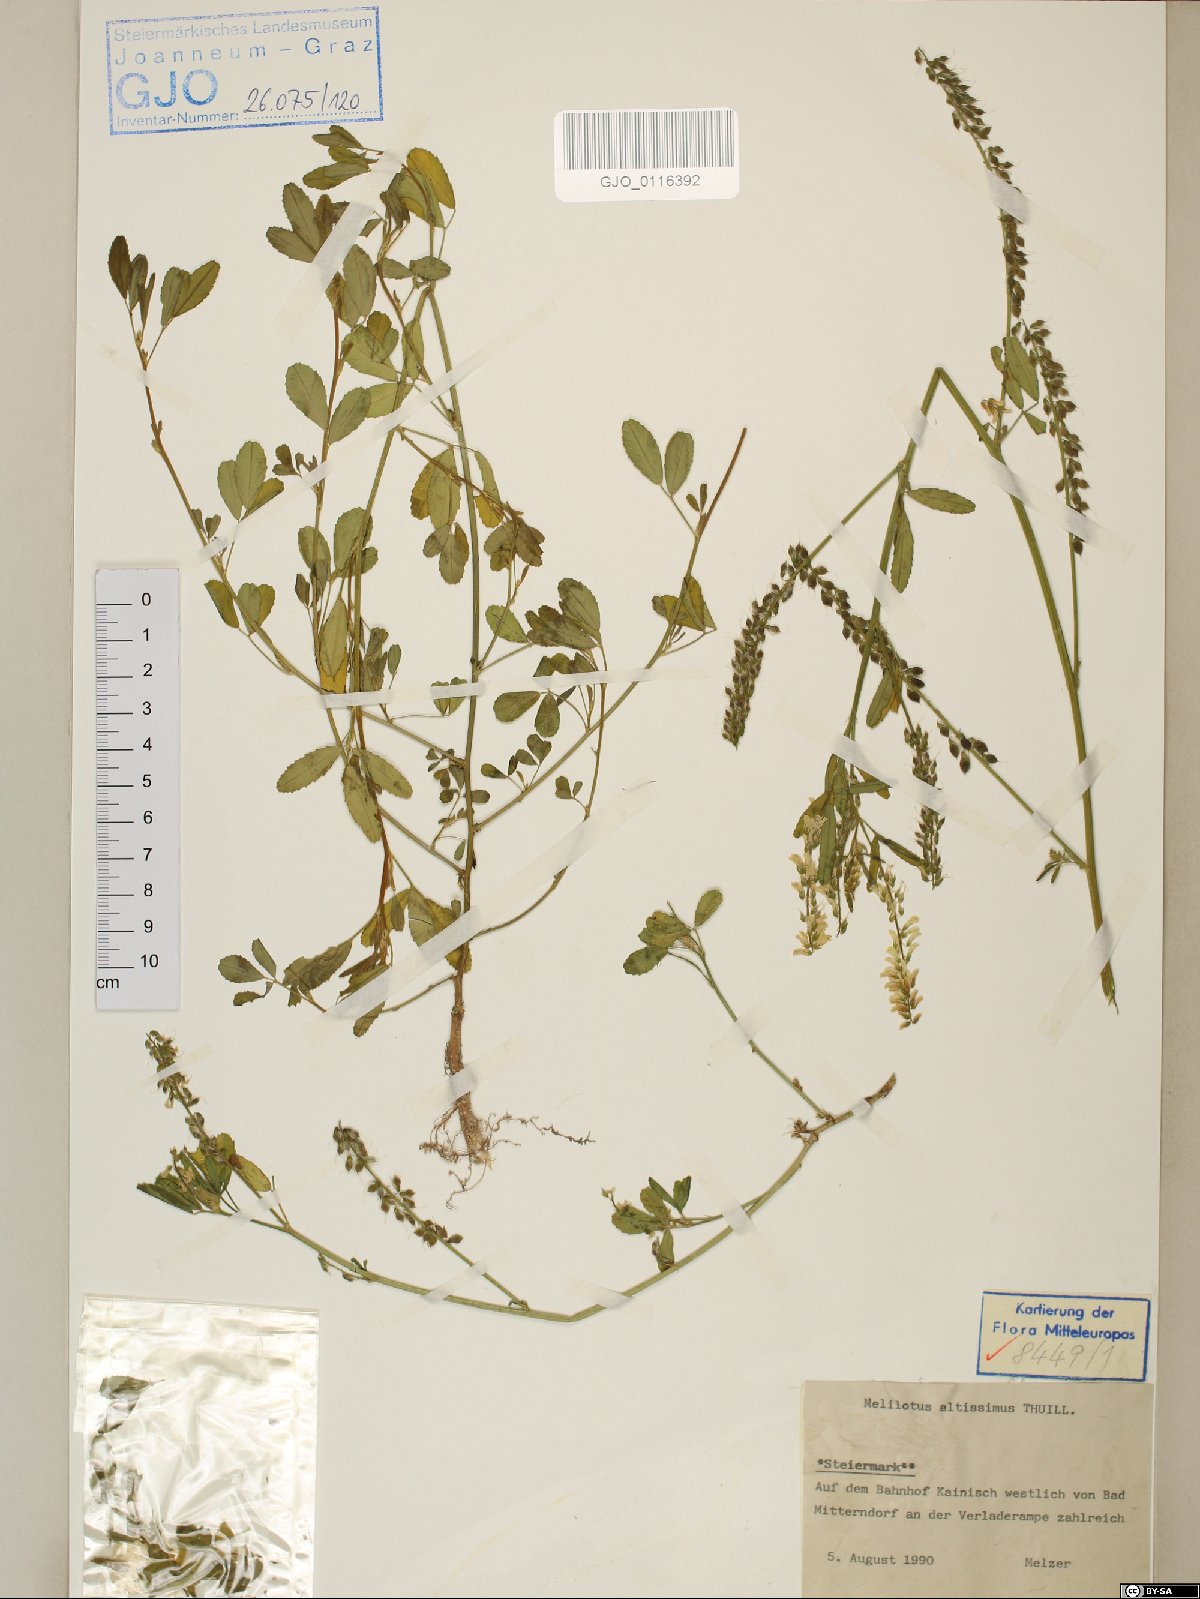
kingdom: Plantae
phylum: Tracheophyta
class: Magnoliopsida
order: Fabales
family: Fabaceae
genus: Melilotus
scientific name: Melilotus altissimus
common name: Tall melilot
